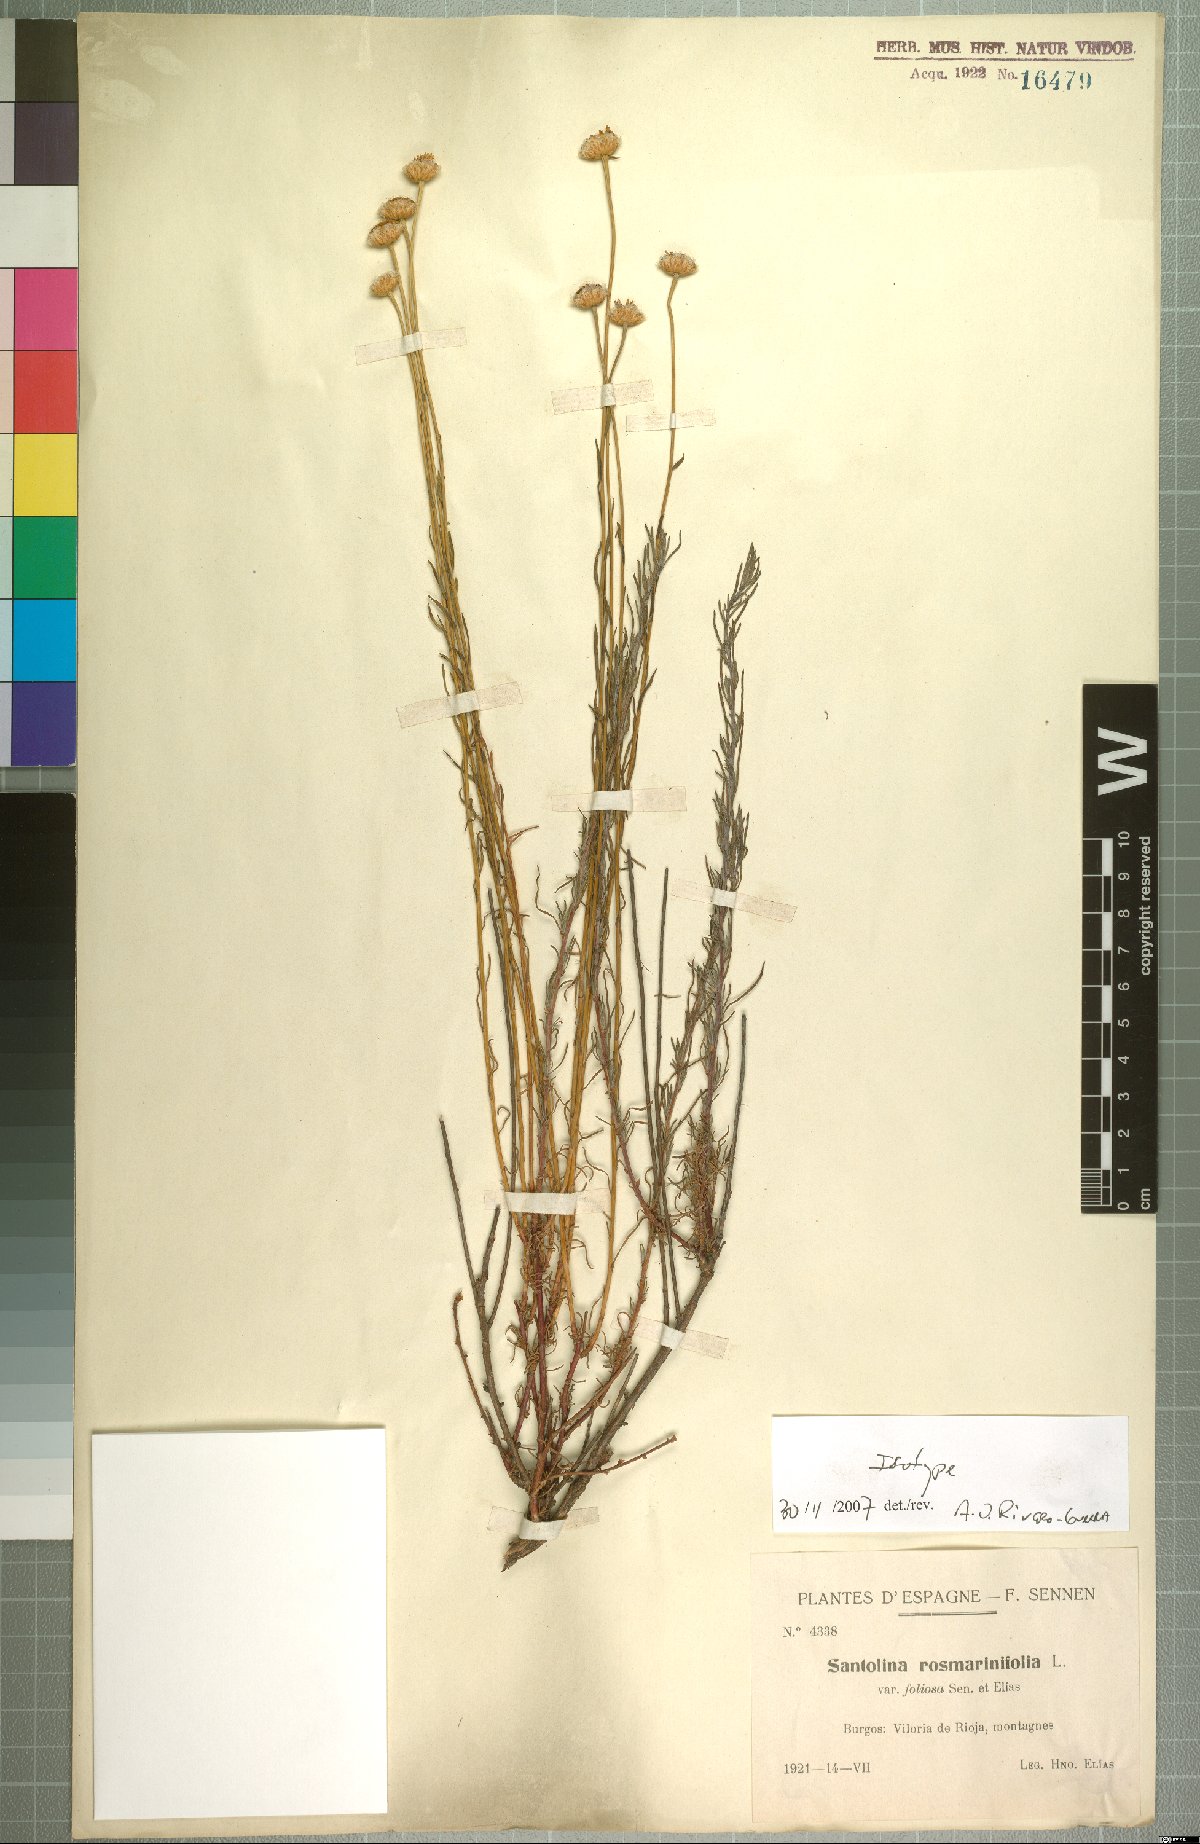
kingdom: Plantae
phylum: Tracheophyta
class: Magnoliopsida
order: Asterales
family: Asteraceae
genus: Santolina
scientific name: Santolina rosmarinifolia
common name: Holy-flax
